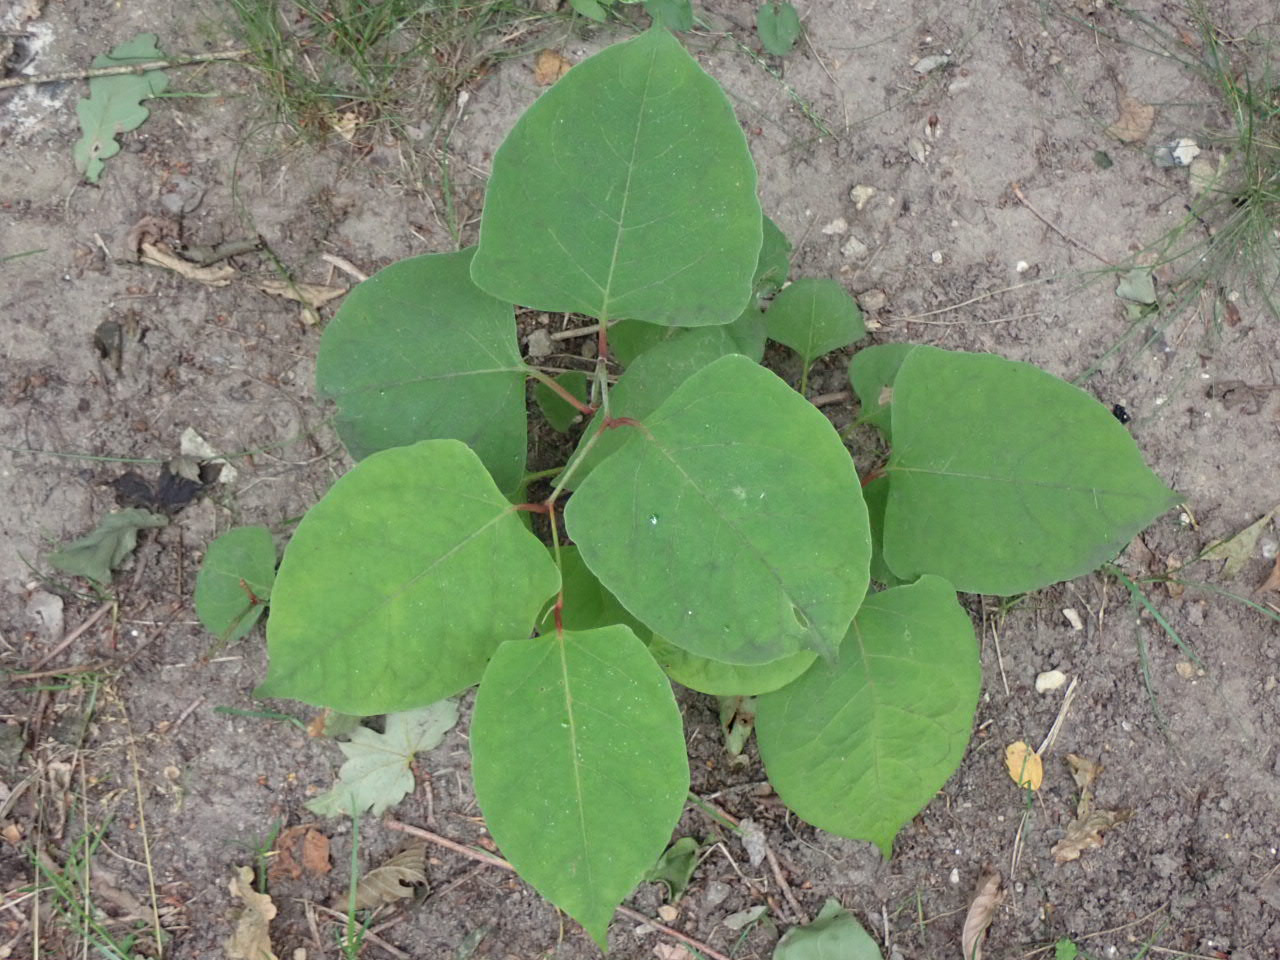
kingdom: Plantae
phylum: Tracheophyta
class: Magnoliopsida
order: Caryophyllales
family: Polygonaceae
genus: Reynoutria
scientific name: Reynoutria japonica
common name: Japan-pileurt
